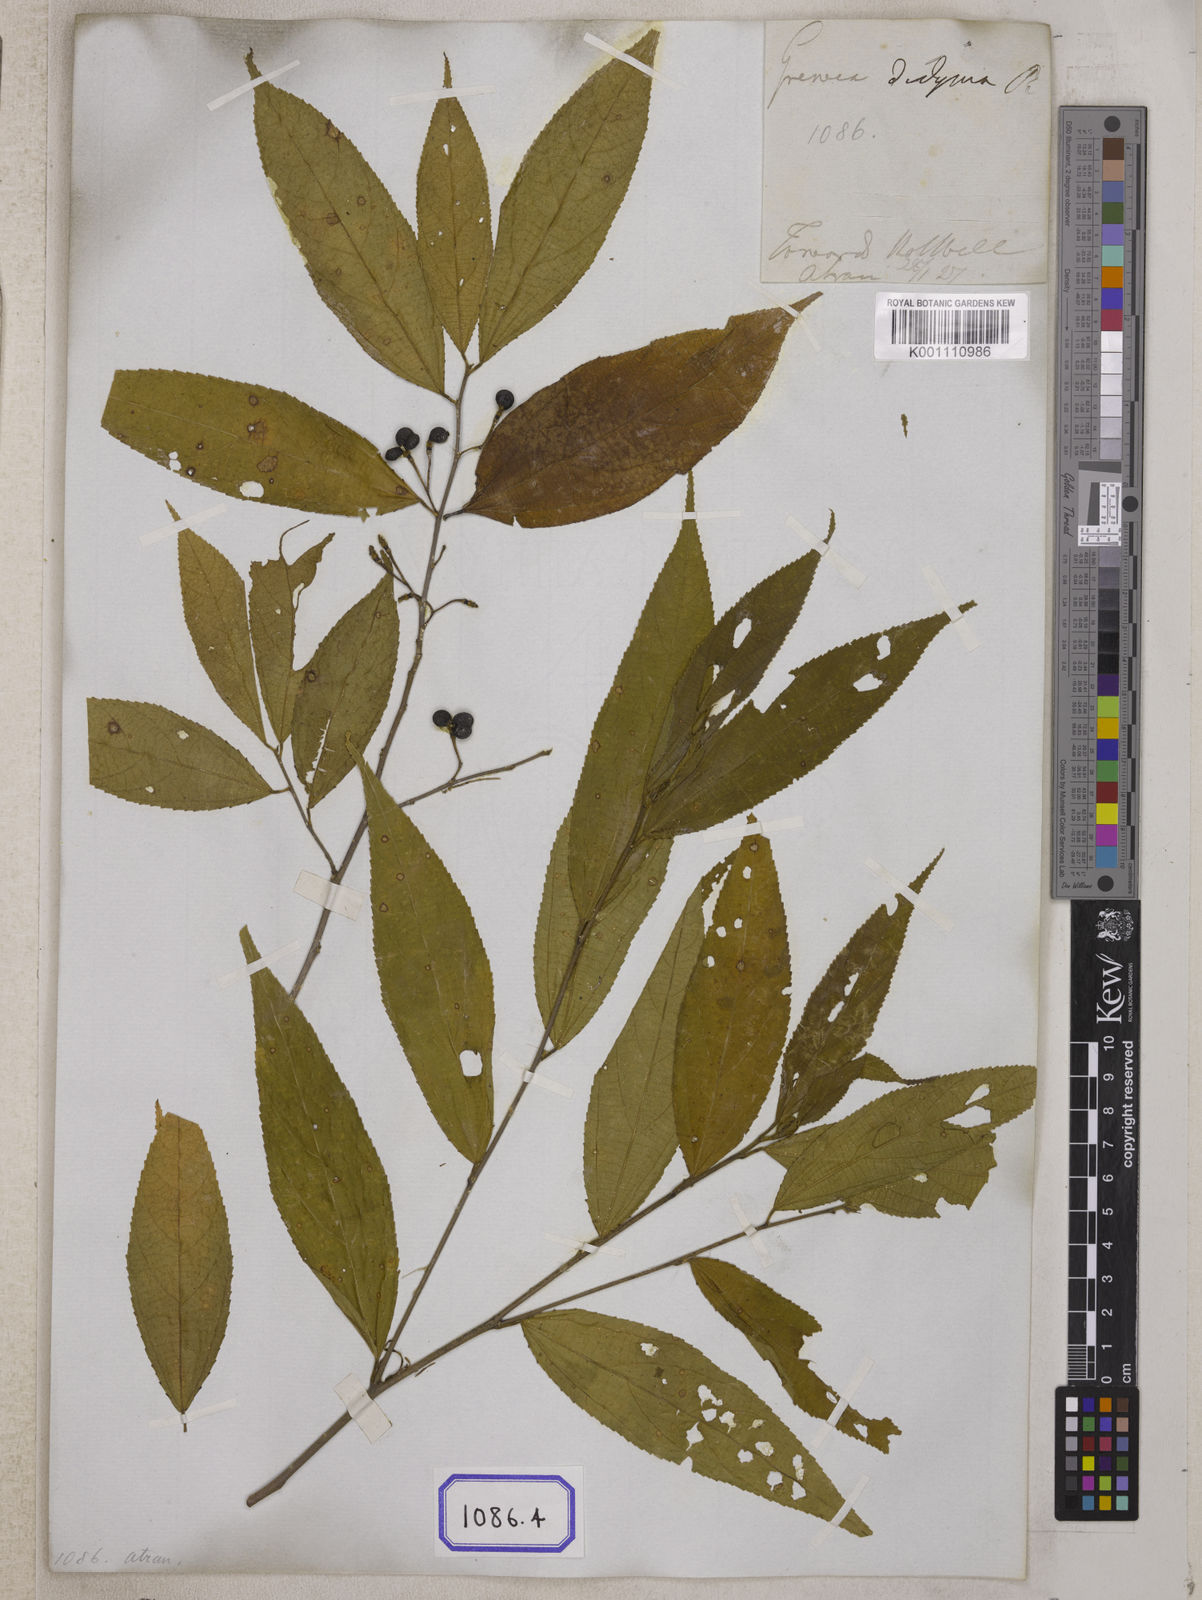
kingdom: Plantae
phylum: Tracheophyta
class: Magnoliopsida
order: Malvales
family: Malvaceae
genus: Grewia
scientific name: Grewia
